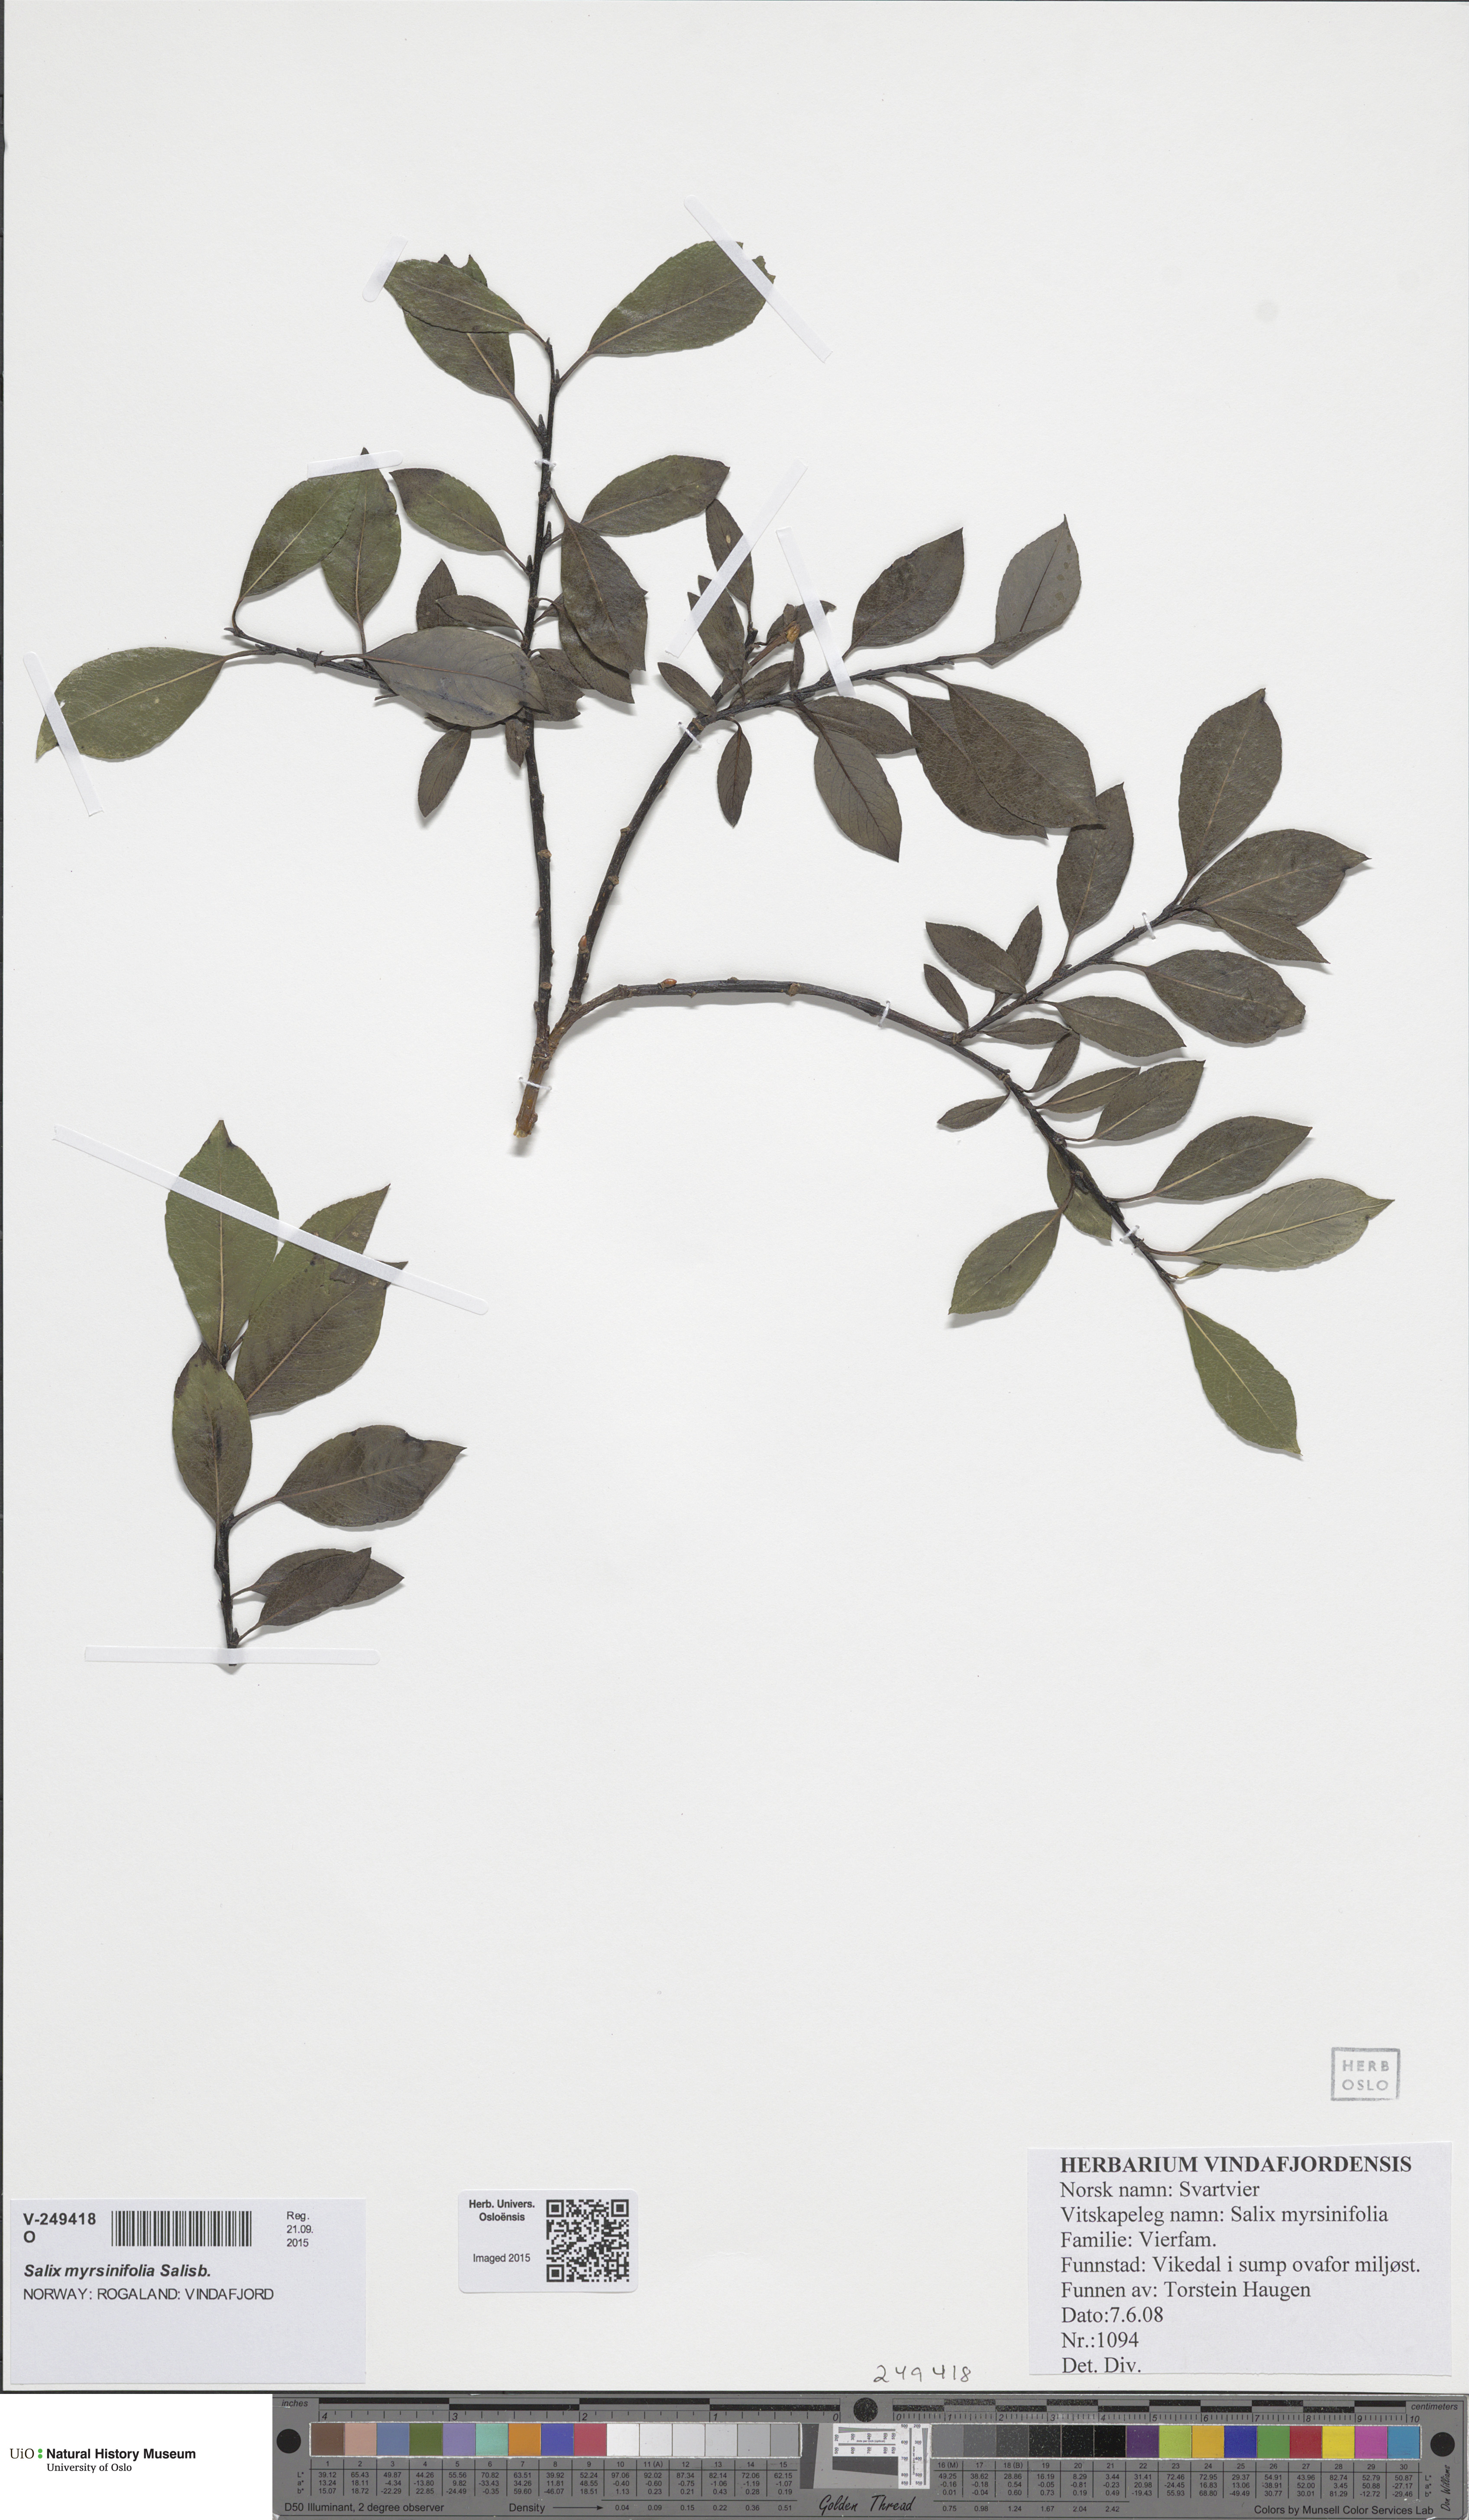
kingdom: Plantae
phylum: Tracheophyta
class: Magnoliopsida
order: Malpighiales
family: Salicaceae
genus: Salix
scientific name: Salix myrsinifolia
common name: Dark-leaved willow
